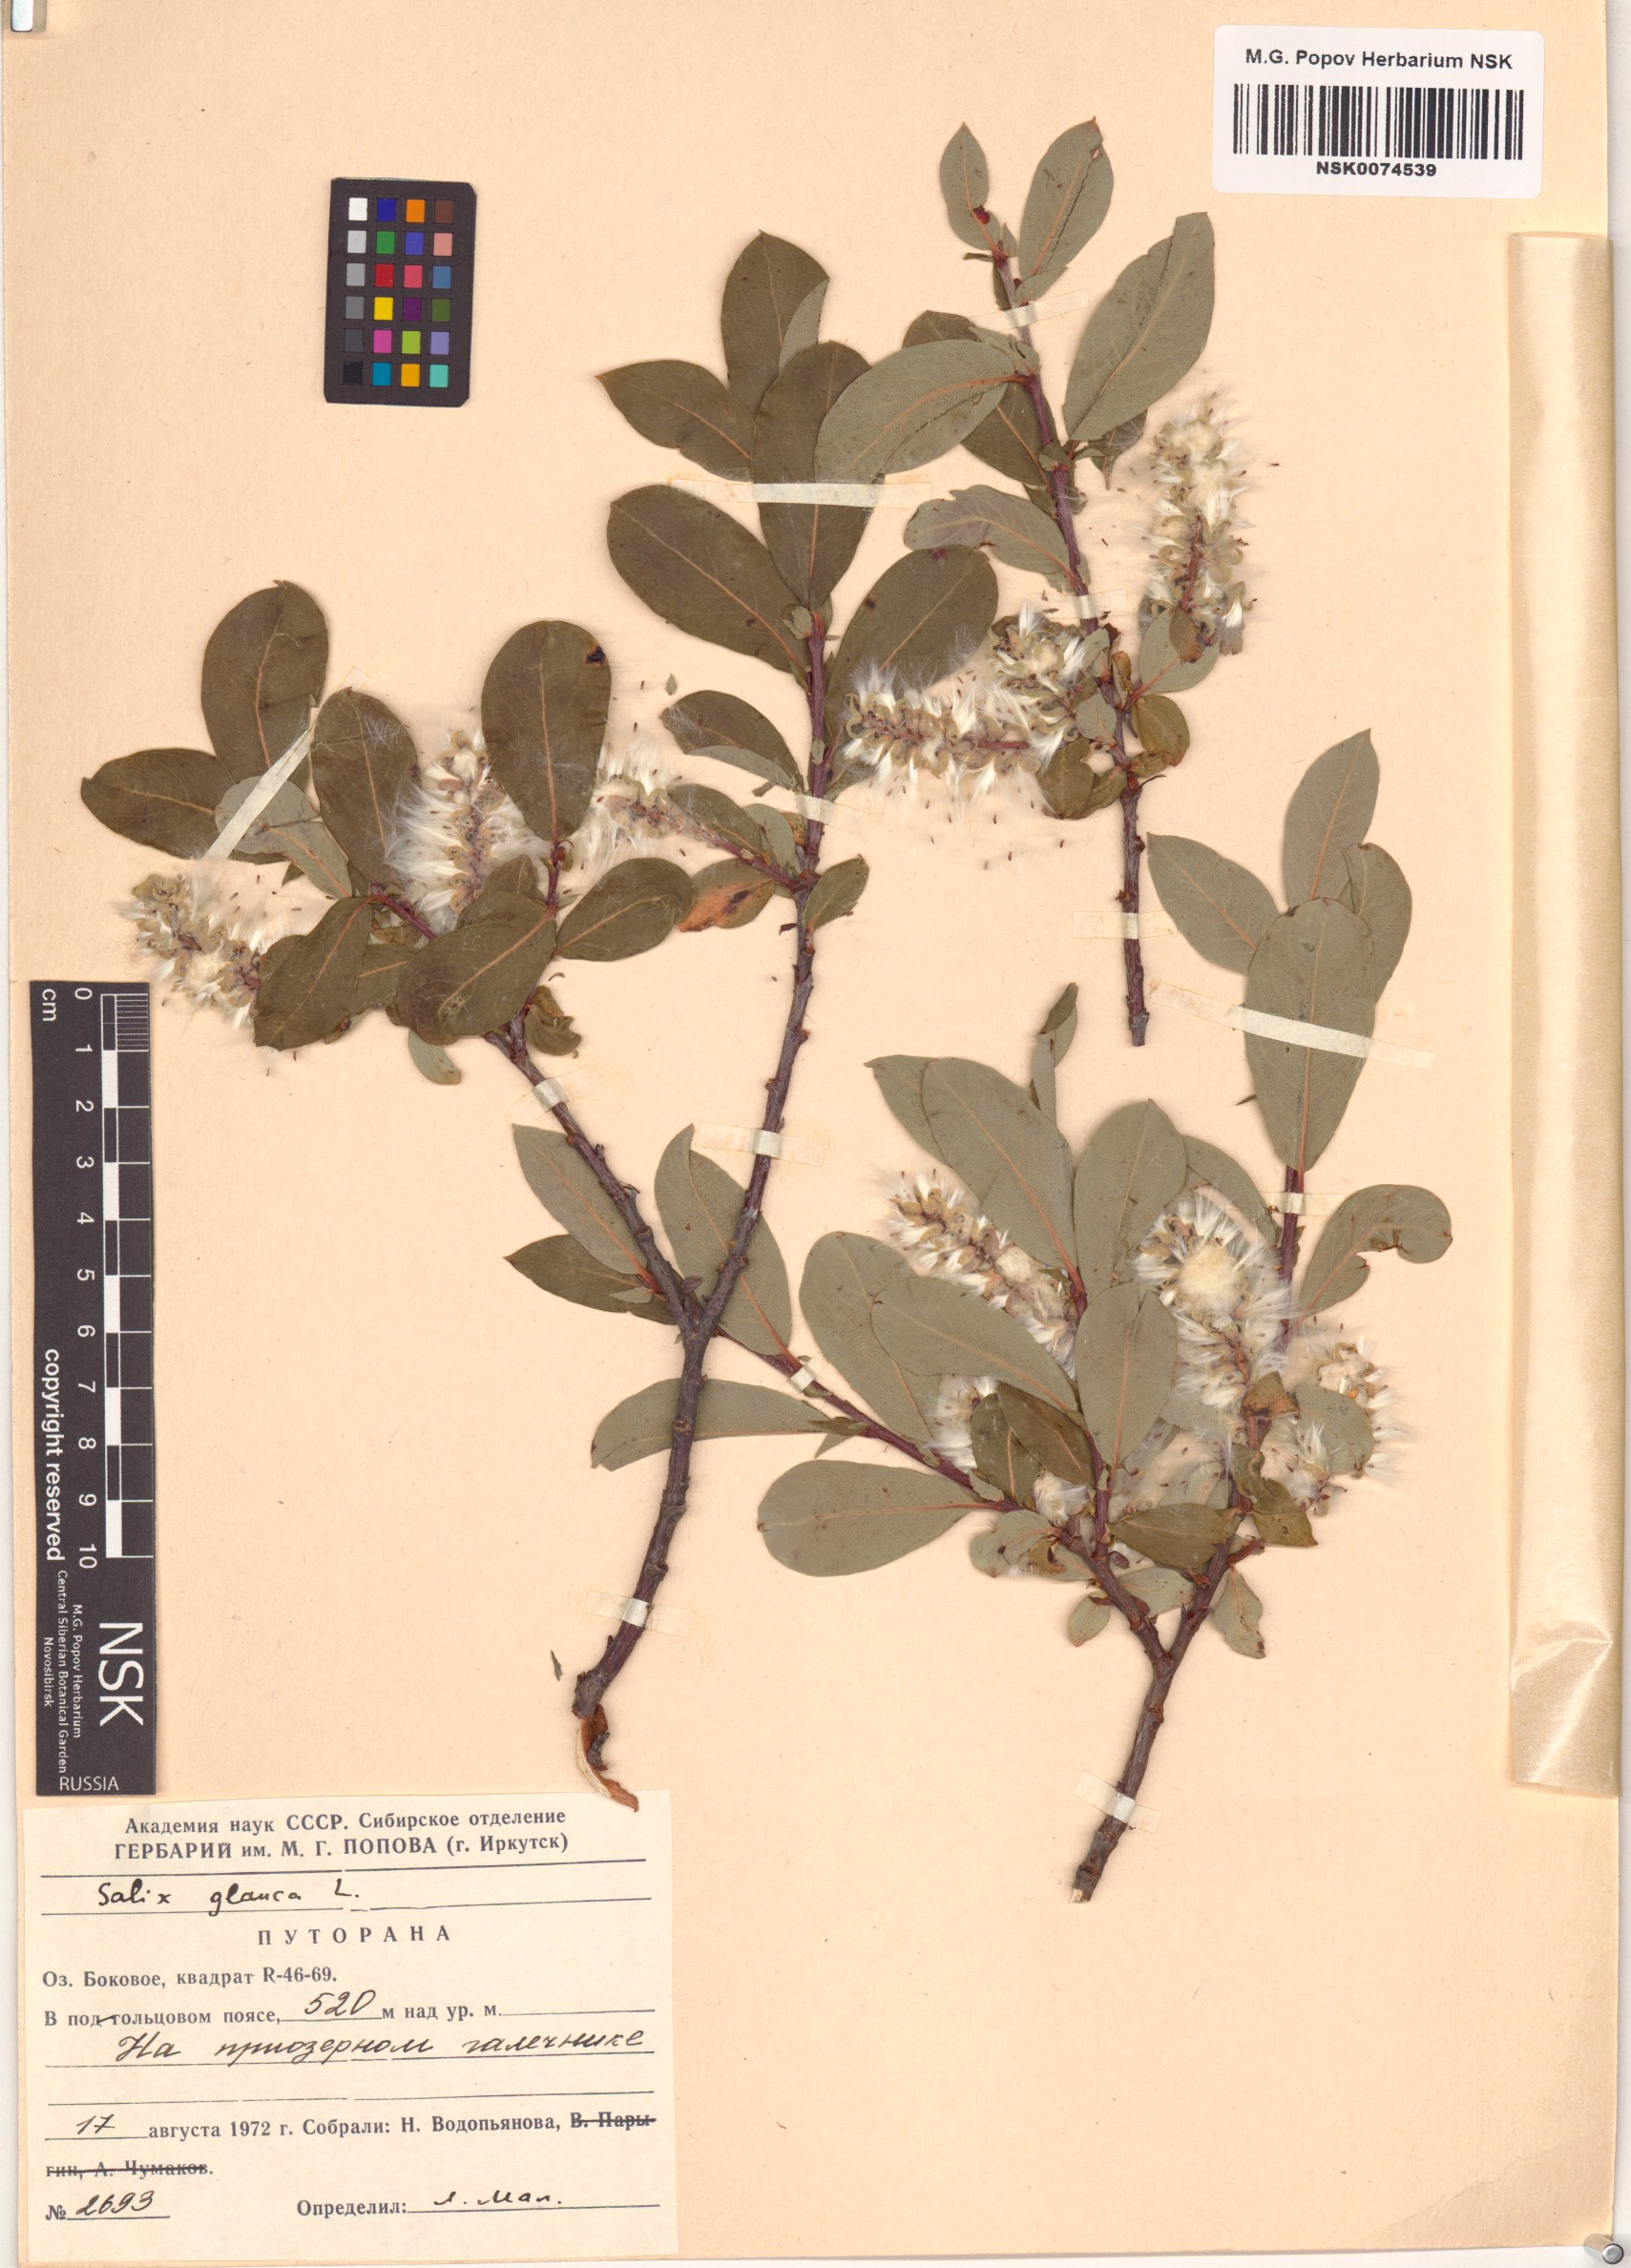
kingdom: Plantae
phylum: Tracheophyta
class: Magnoliopsida
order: Malpighiales
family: Salicaceae
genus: Salix
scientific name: Salix glauca
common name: Glaucous willow
